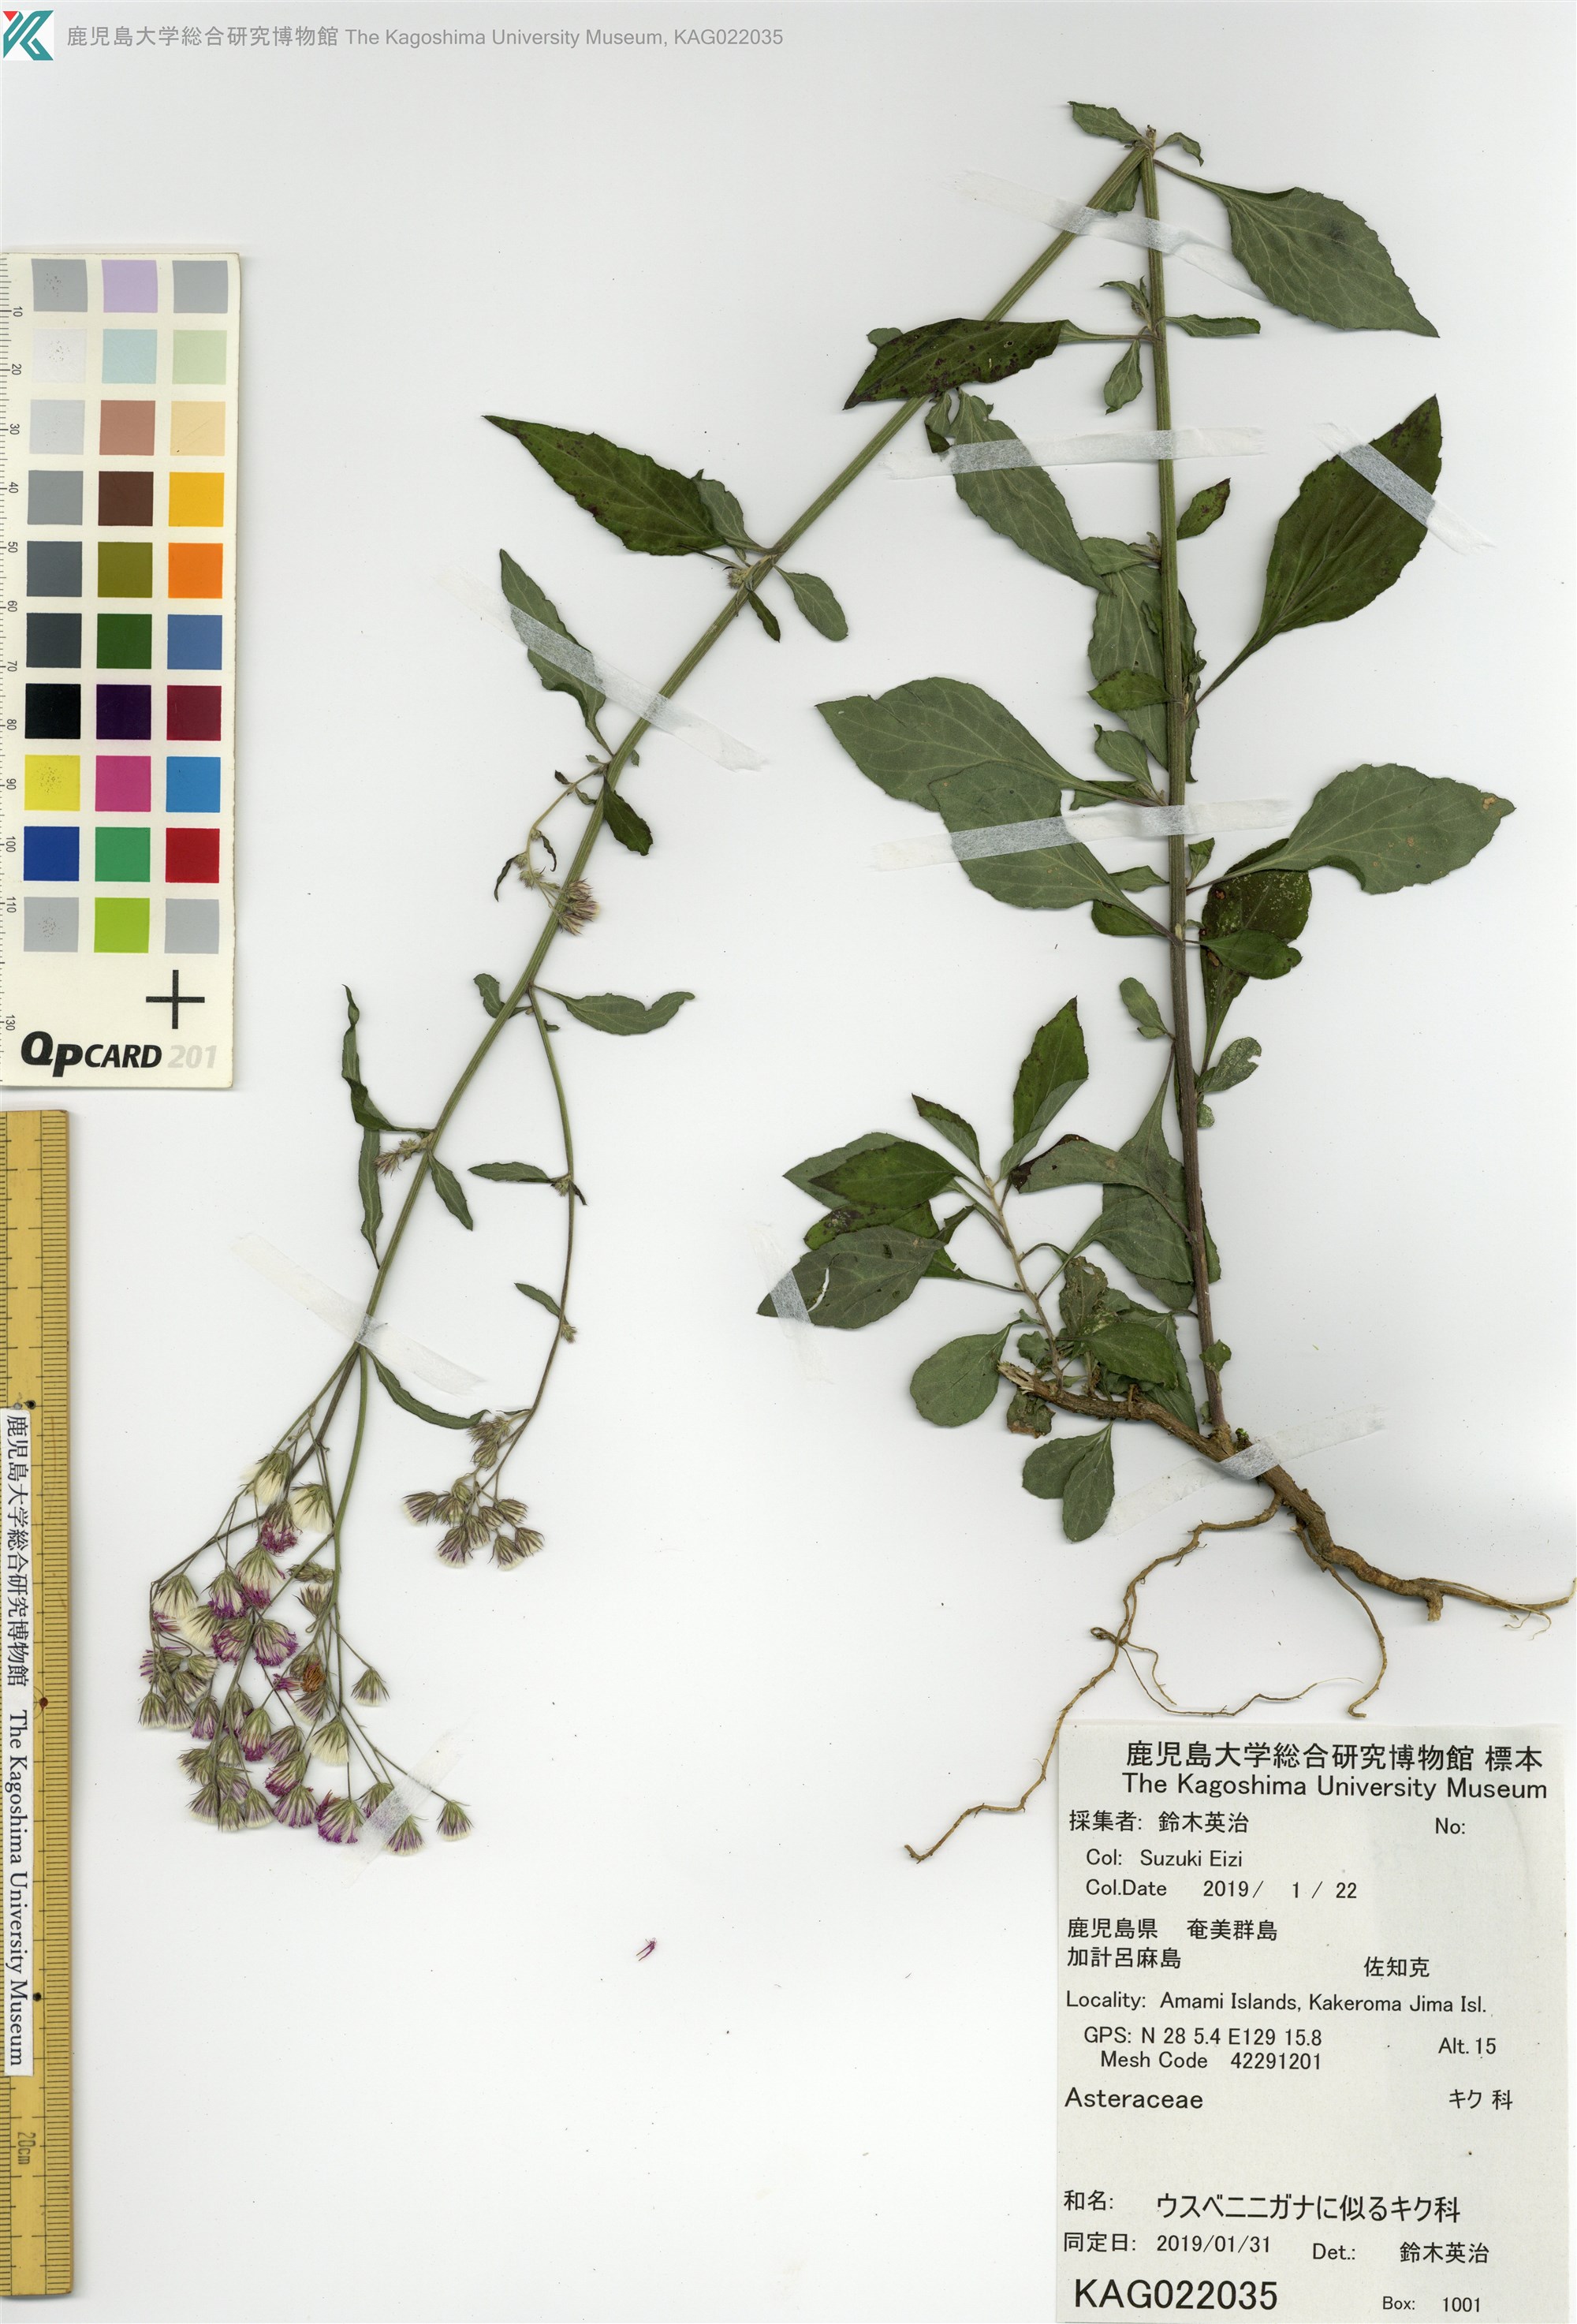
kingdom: Plantae
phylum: Tracheophyta
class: Magnoliopsida
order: Asterales
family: Asteraceae
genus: Cyanthillium
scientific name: Cyanthillium cinereum
